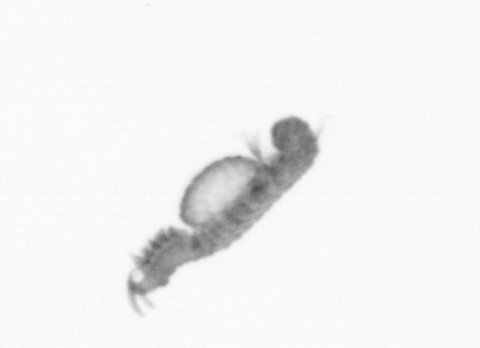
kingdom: Animalia
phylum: Annelida
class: Polychaeta
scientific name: Polychaeta
